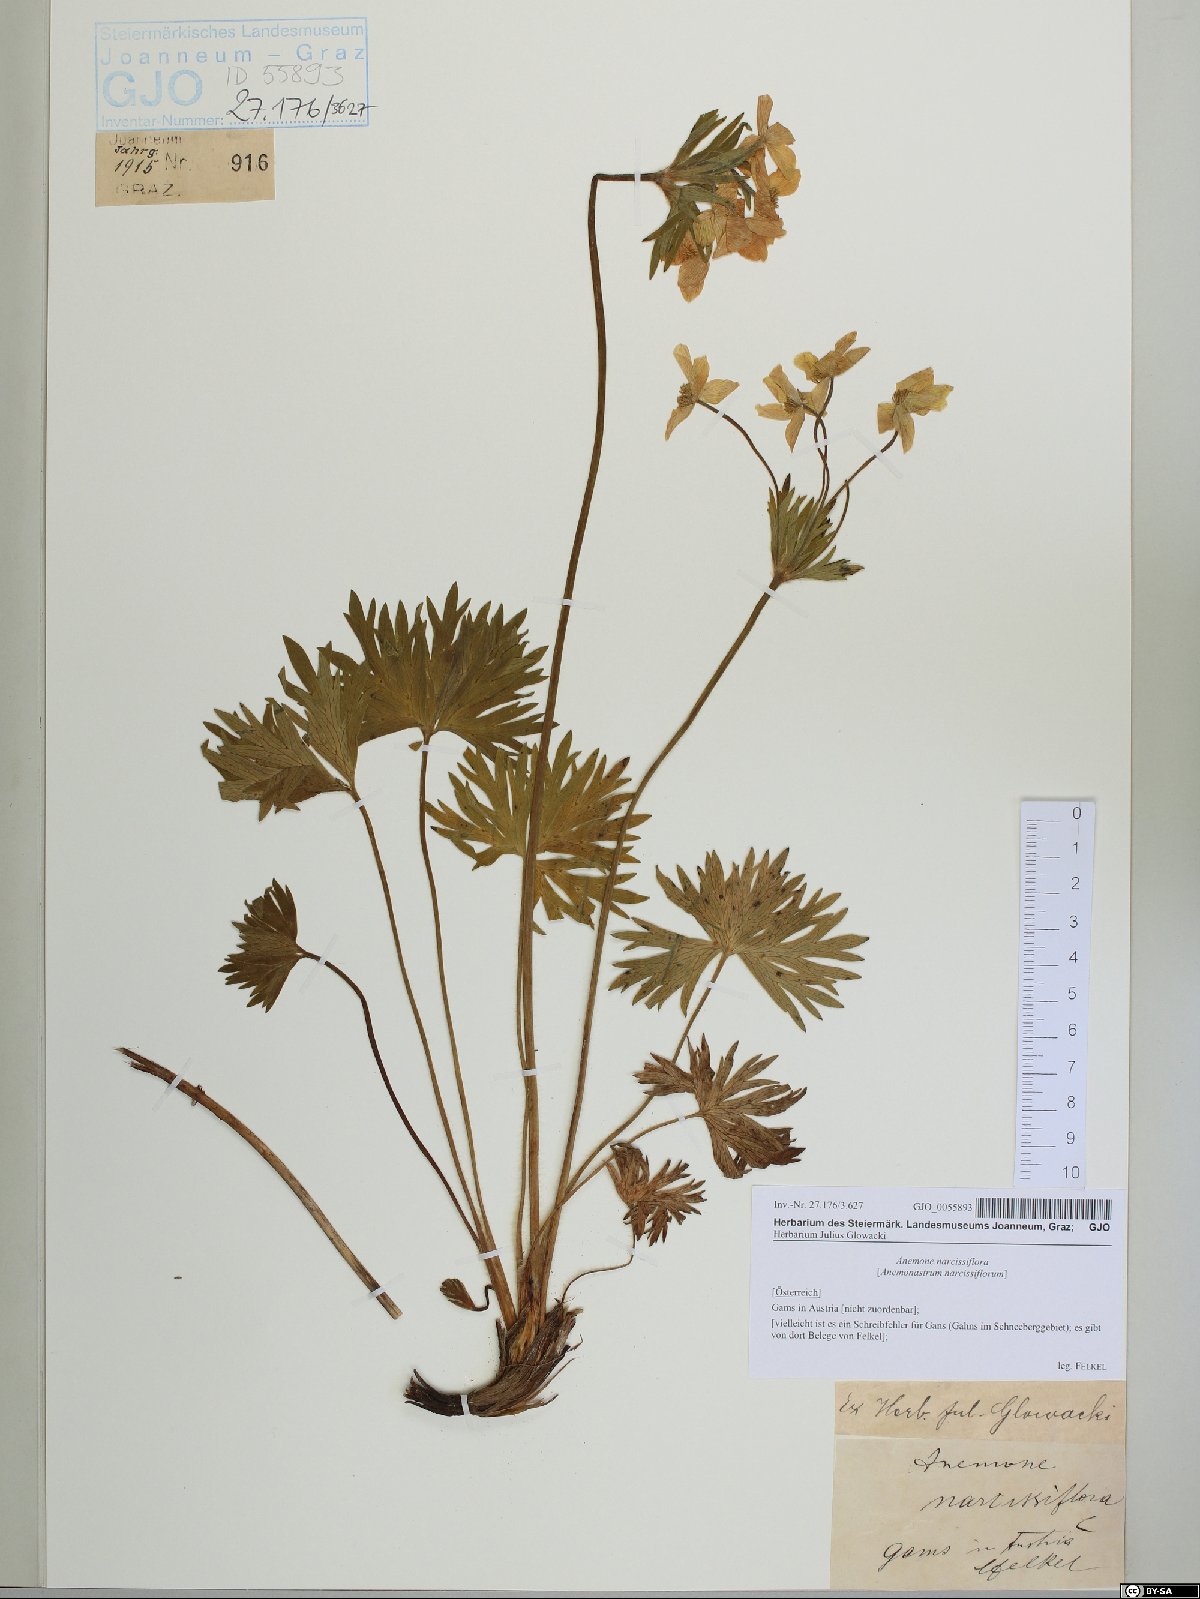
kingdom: Plantae
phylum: Tracheophyta
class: Magnoliopsida
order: Ranunculales
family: Ranunculaceae
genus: Anemonastrum
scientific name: Anemonastrum narcissiflorum
